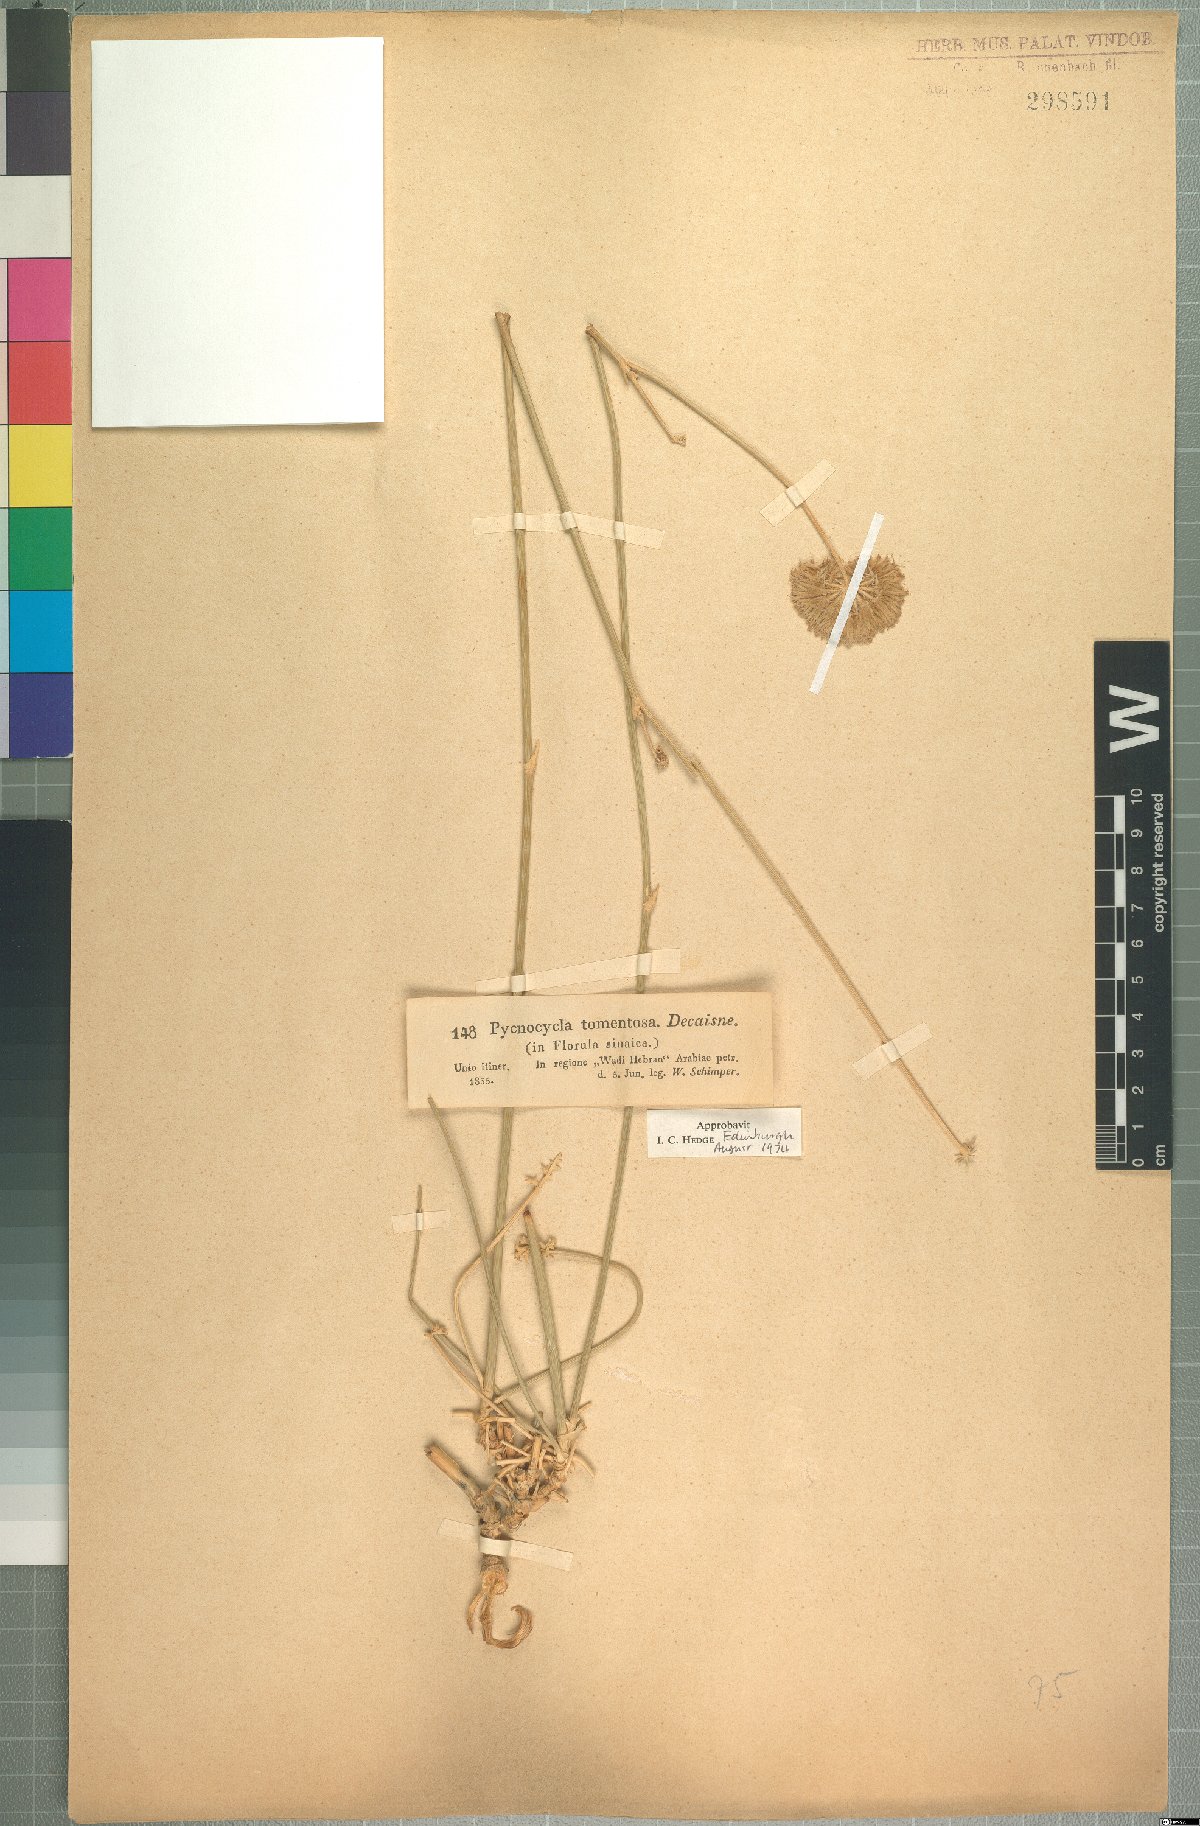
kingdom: Plantae
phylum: Tracheophyta
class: Magnoliopsida
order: Apiales
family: Apiaceae
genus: Pycnocycla
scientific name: Pycnocycla tomentosa
